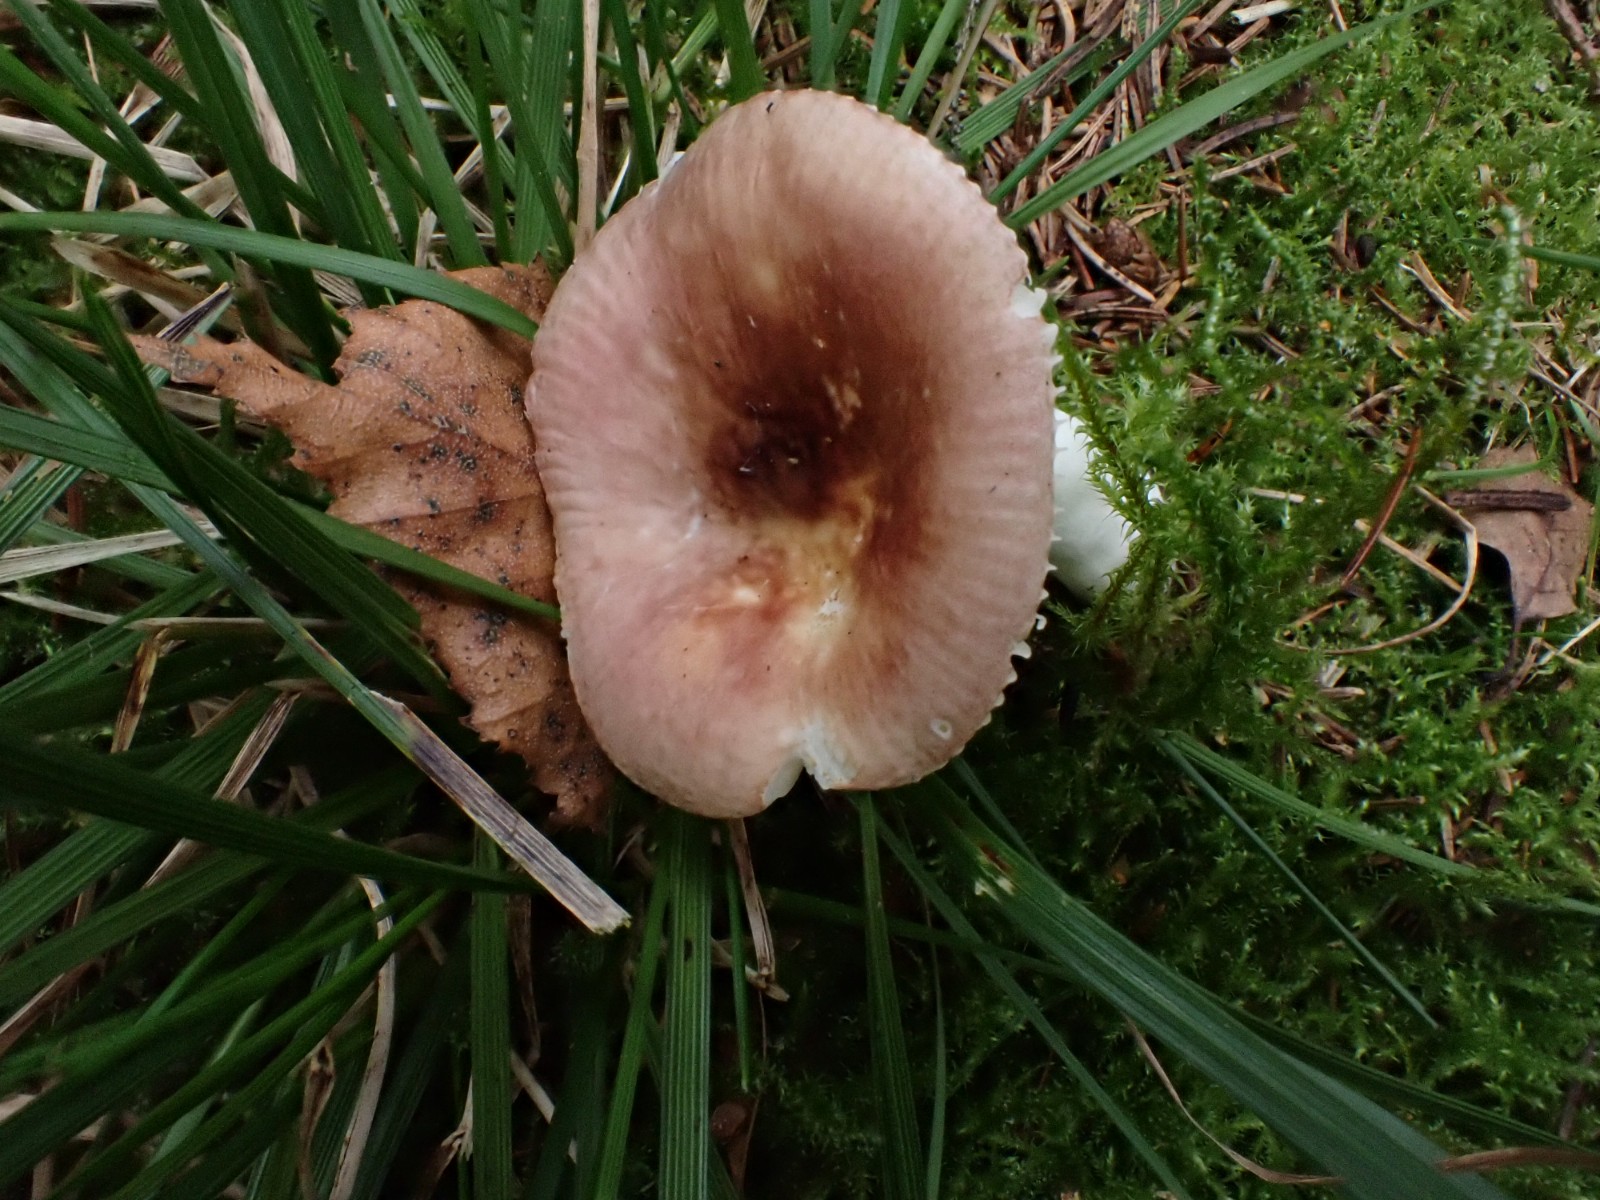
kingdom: Fungi
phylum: Basidiomycota
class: Agaricomycetes
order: Russulales
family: Russulaceae
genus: Russula
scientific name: Russula nauseosa
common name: spinkel skørhat
